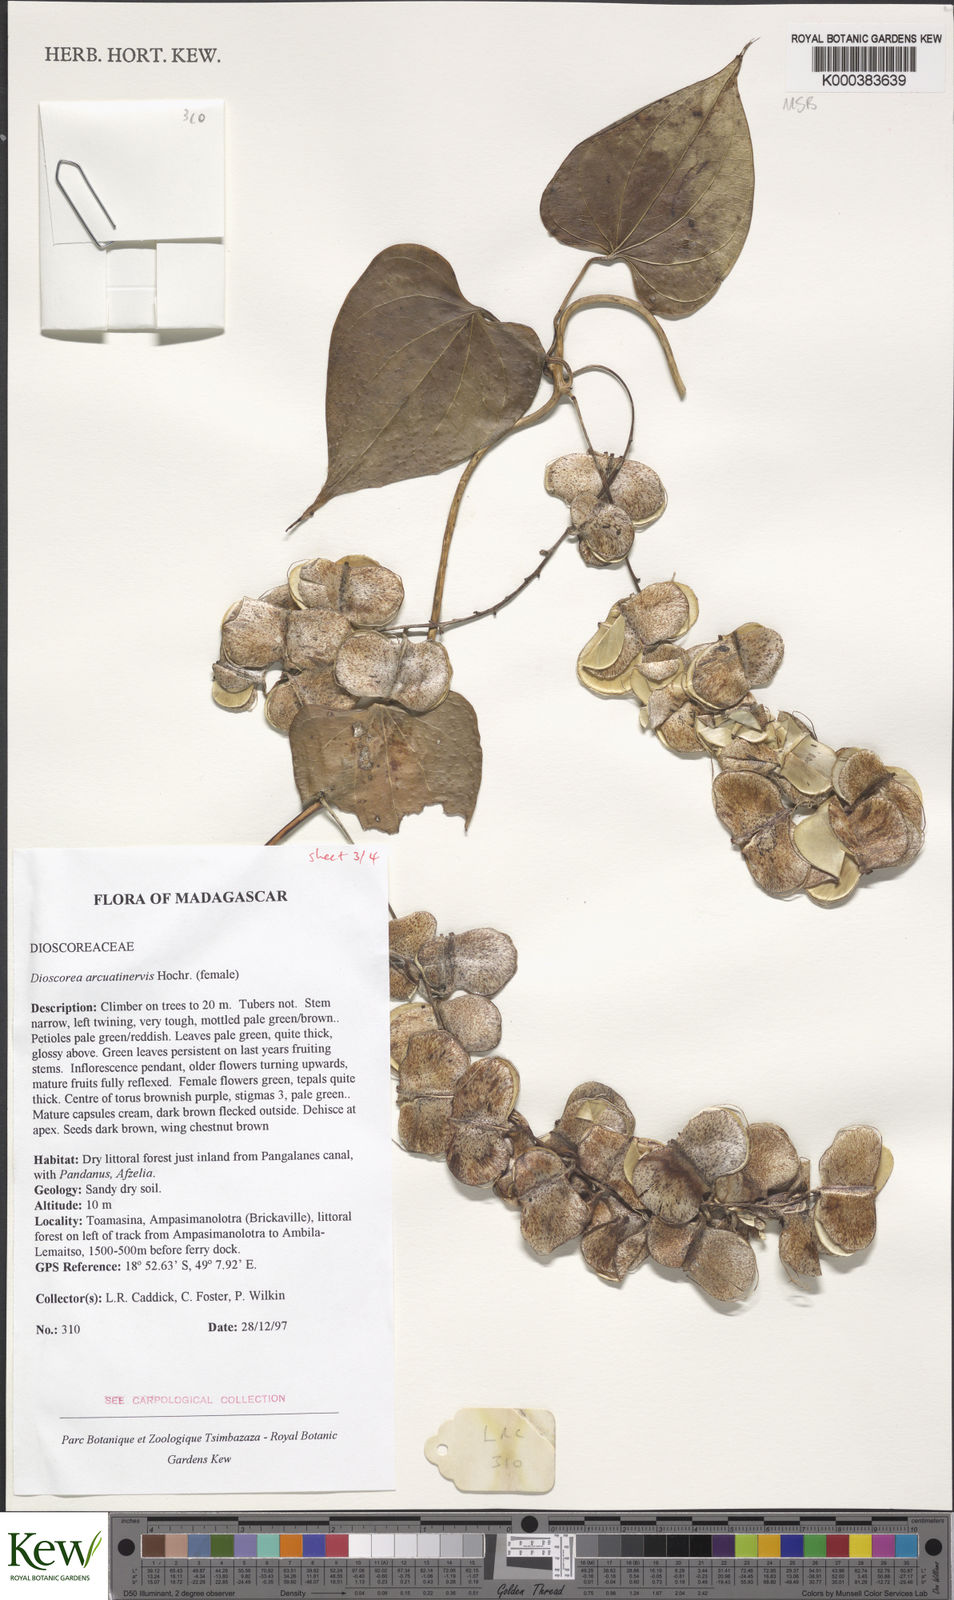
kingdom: Plantae
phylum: Tracheophyta
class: Liliopsida
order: Dioscoreales
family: Dioscoreaceae
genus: Dioscorea
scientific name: Dioscorea arcuatinervis
